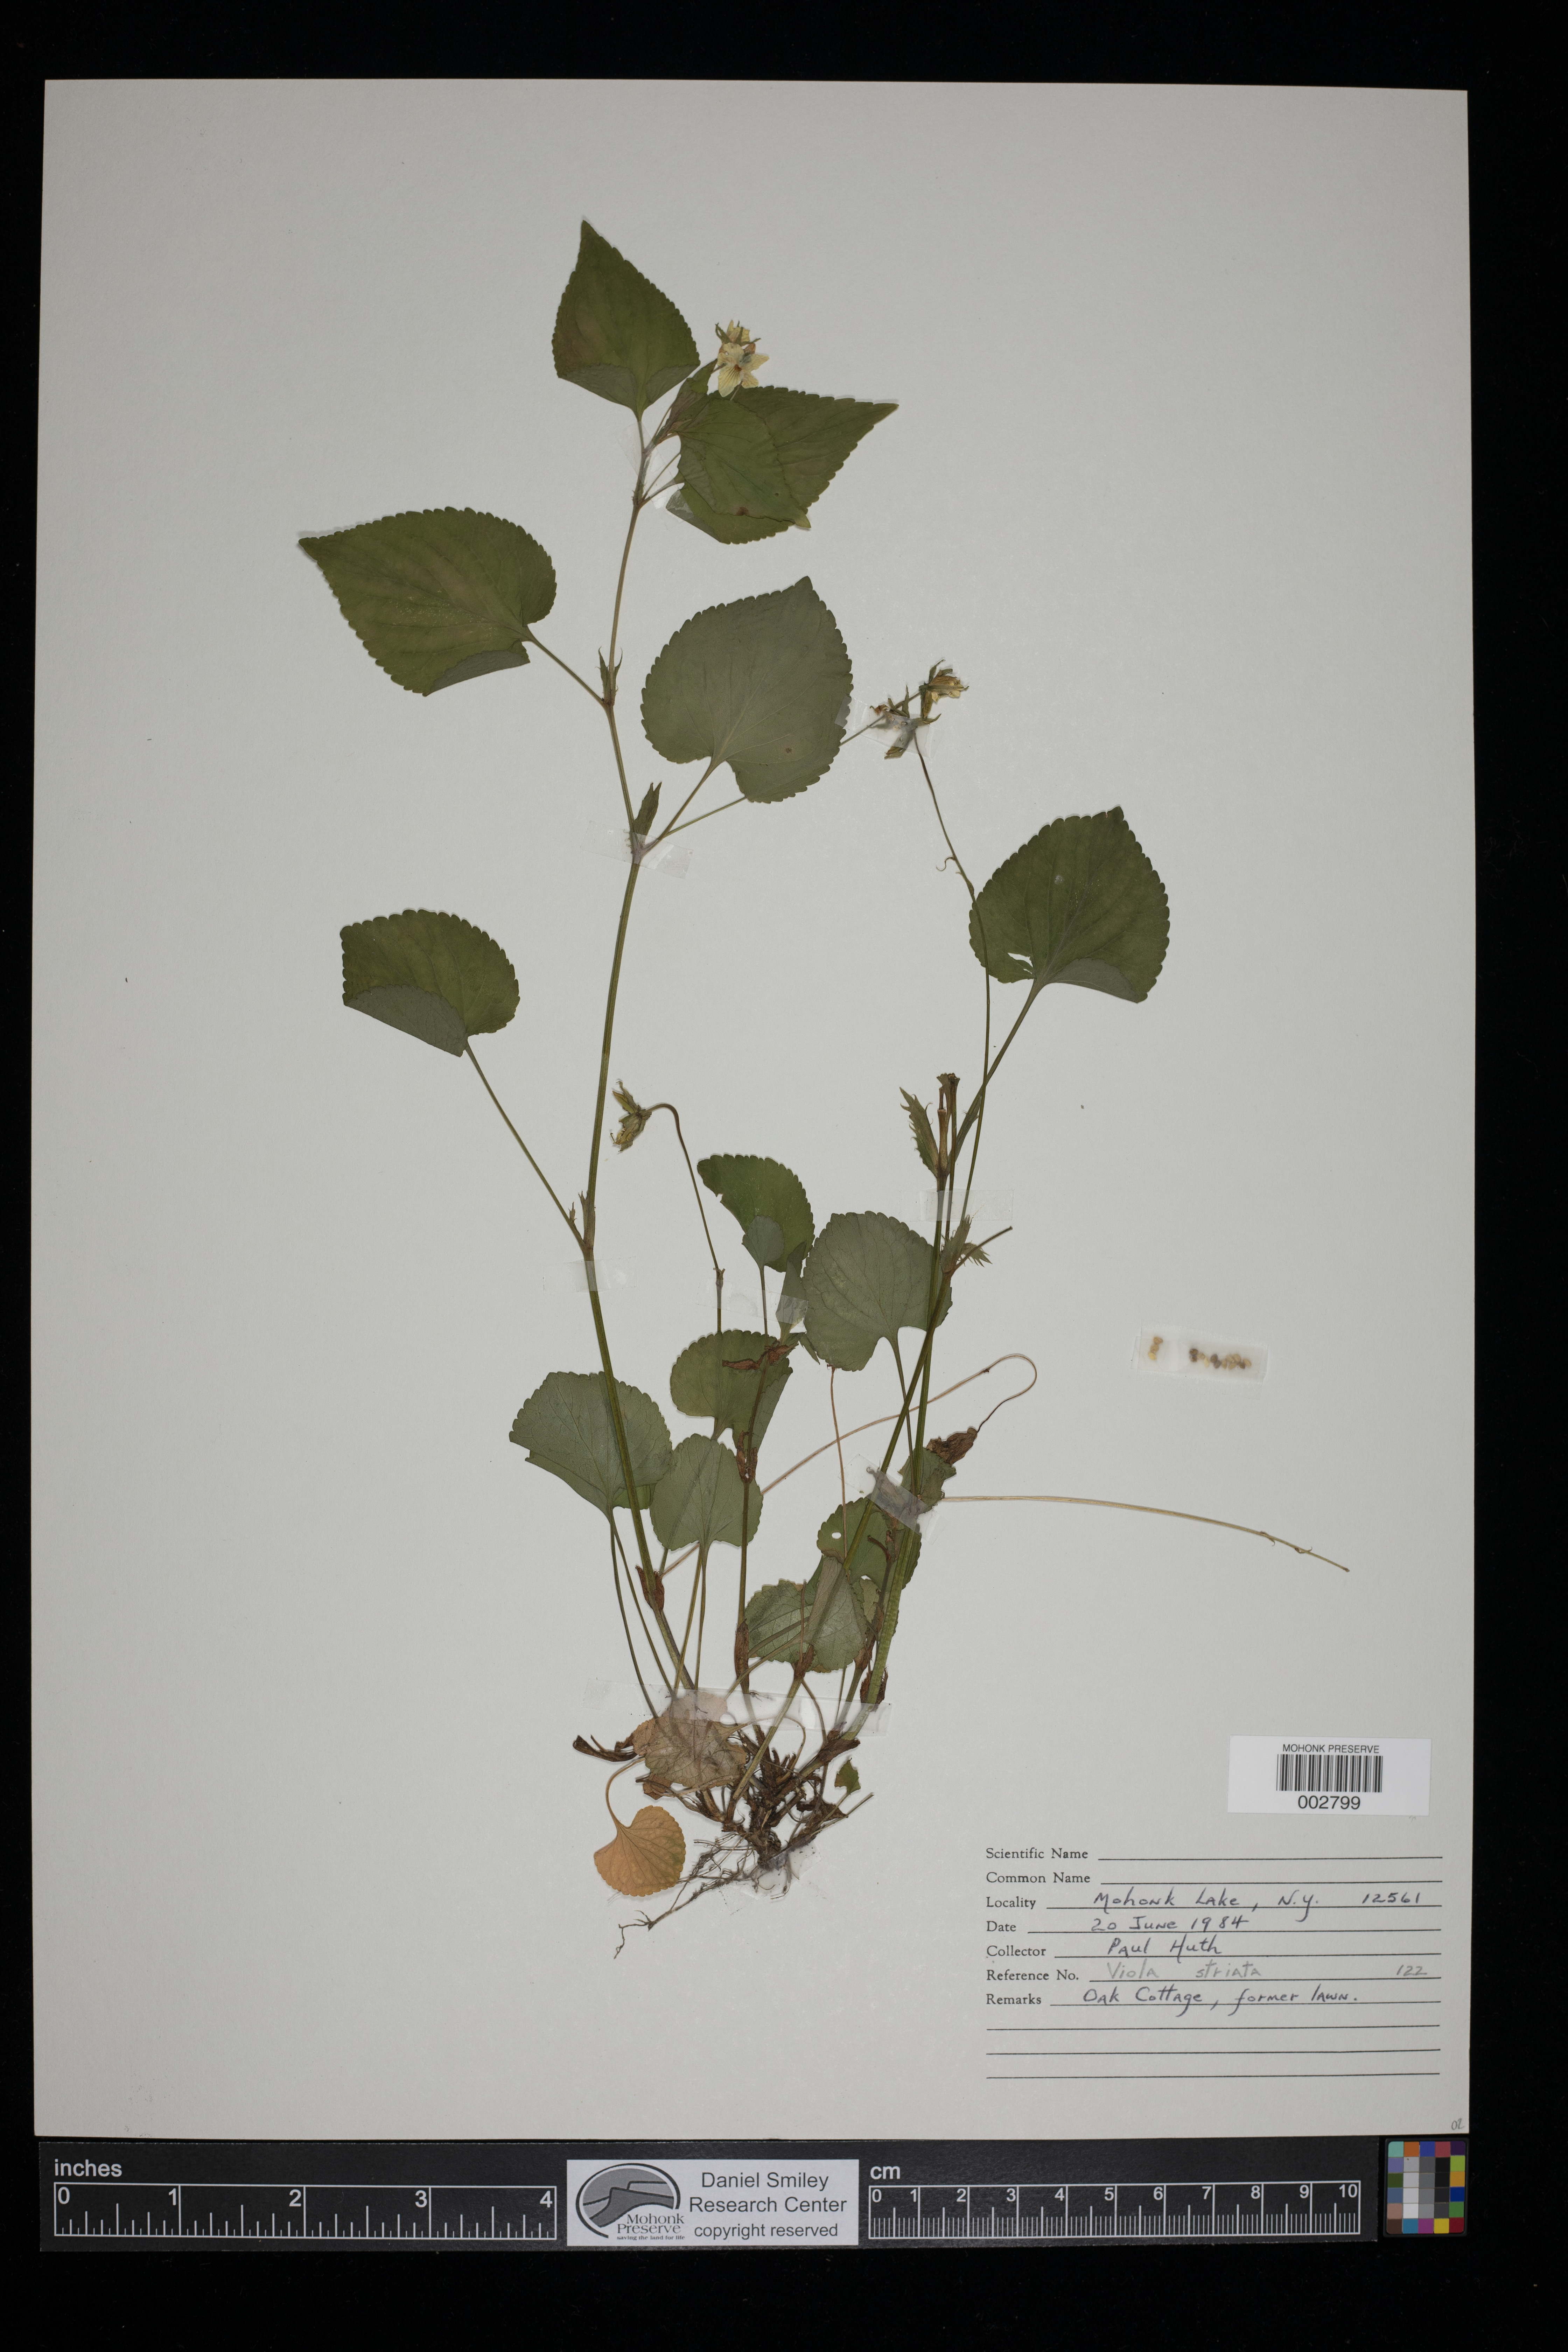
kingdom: Plantae
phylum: Tracheophyta
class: Magnoliopsida
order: Malpighiales
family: Violaceae
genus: Viola
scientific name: Viola striata
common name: Cream violet
